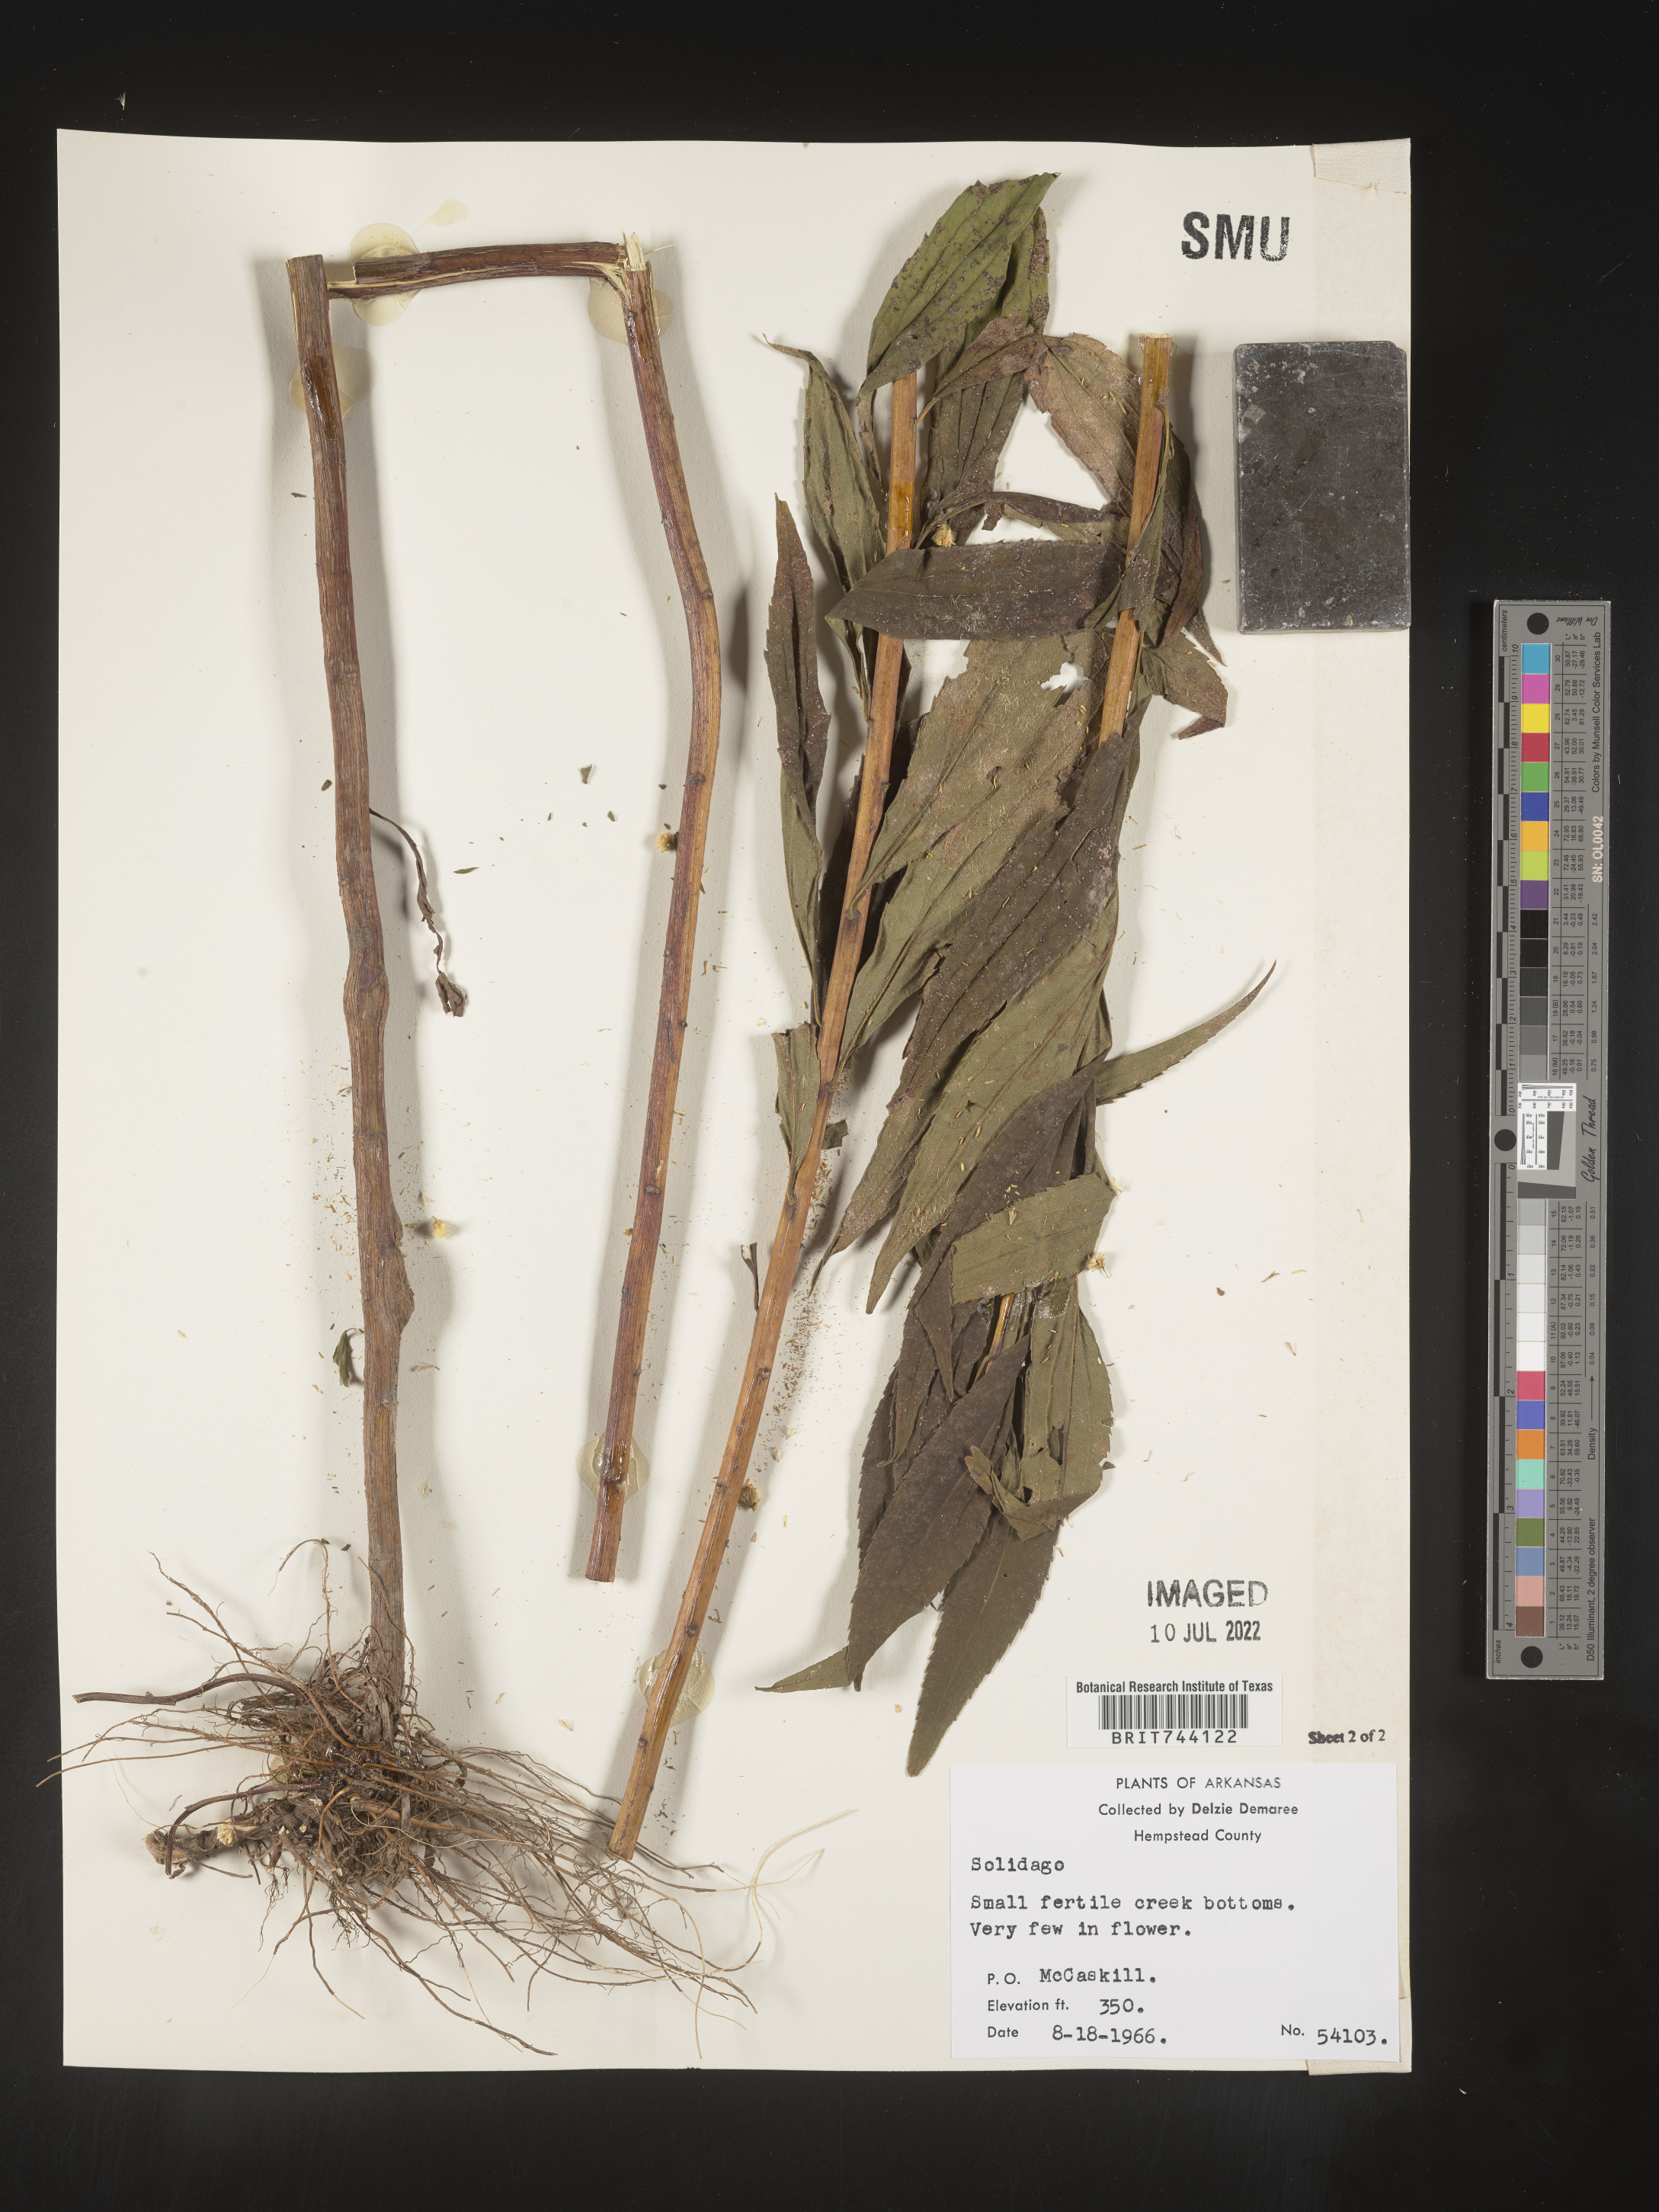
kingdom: Plantae
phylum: Tracheophyta
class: Magnoliopsida
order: Asterales
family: Asteraceae
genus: Solidago
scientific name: Solidago altissima
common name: Late goldenrod
